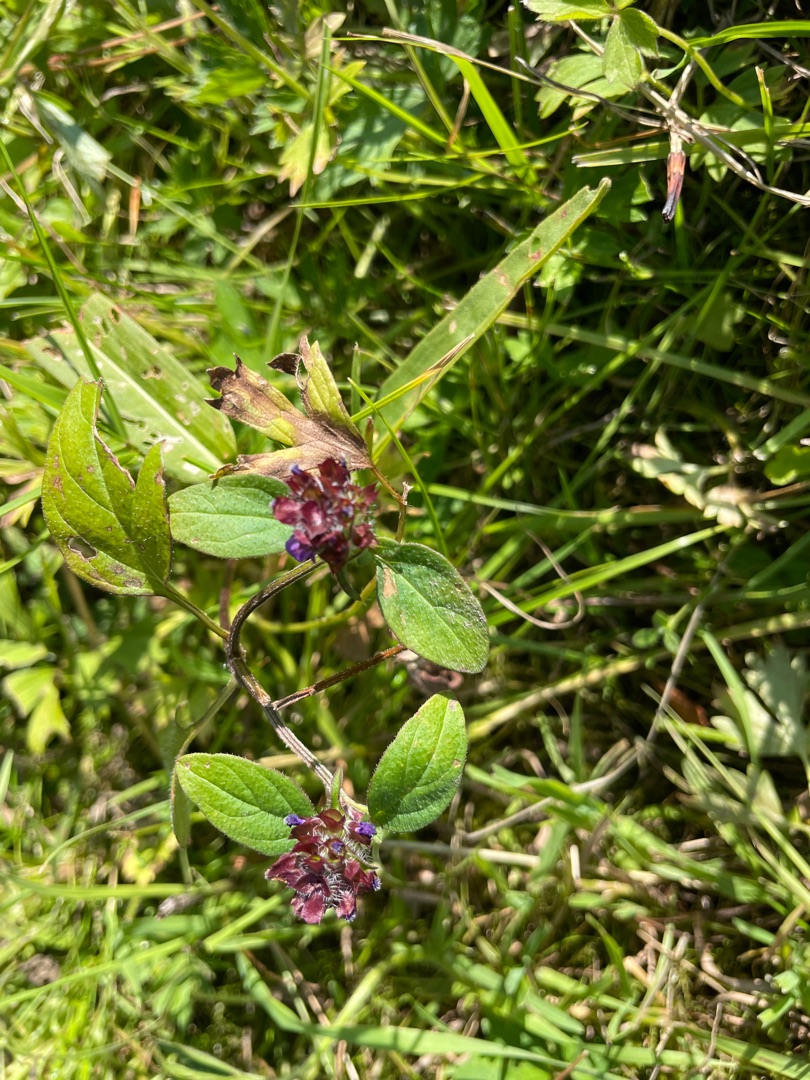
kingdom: Plantae
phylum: Tracheophyta
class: Magnoliopsida
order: Lamiales
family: Lamiaceae
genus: Prunella
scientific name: Prunella vulgaris
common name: Almindelig brunelle
